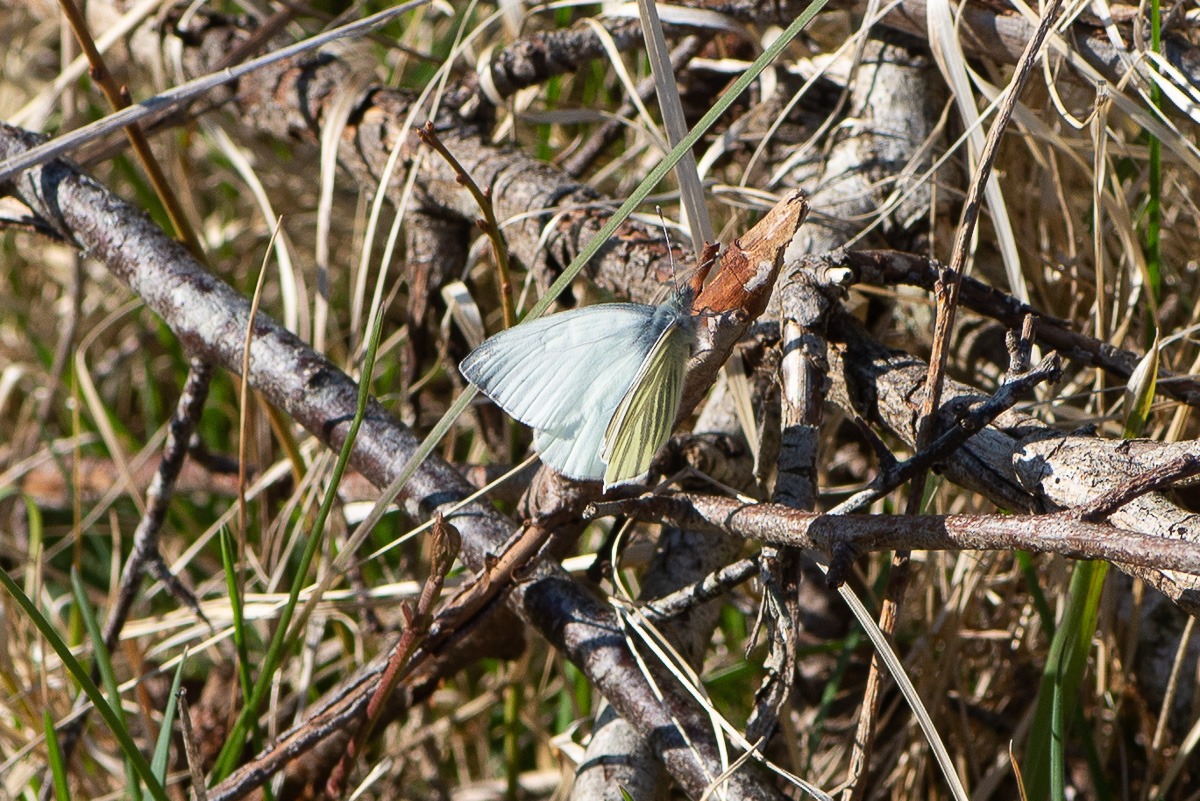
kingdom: Animalia
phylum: Arthropoda
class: Insecta
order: Lepidoptera
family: Pieridae
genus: Pieris
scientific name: Pieris napi
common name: Grønåret kålsommerfugl
